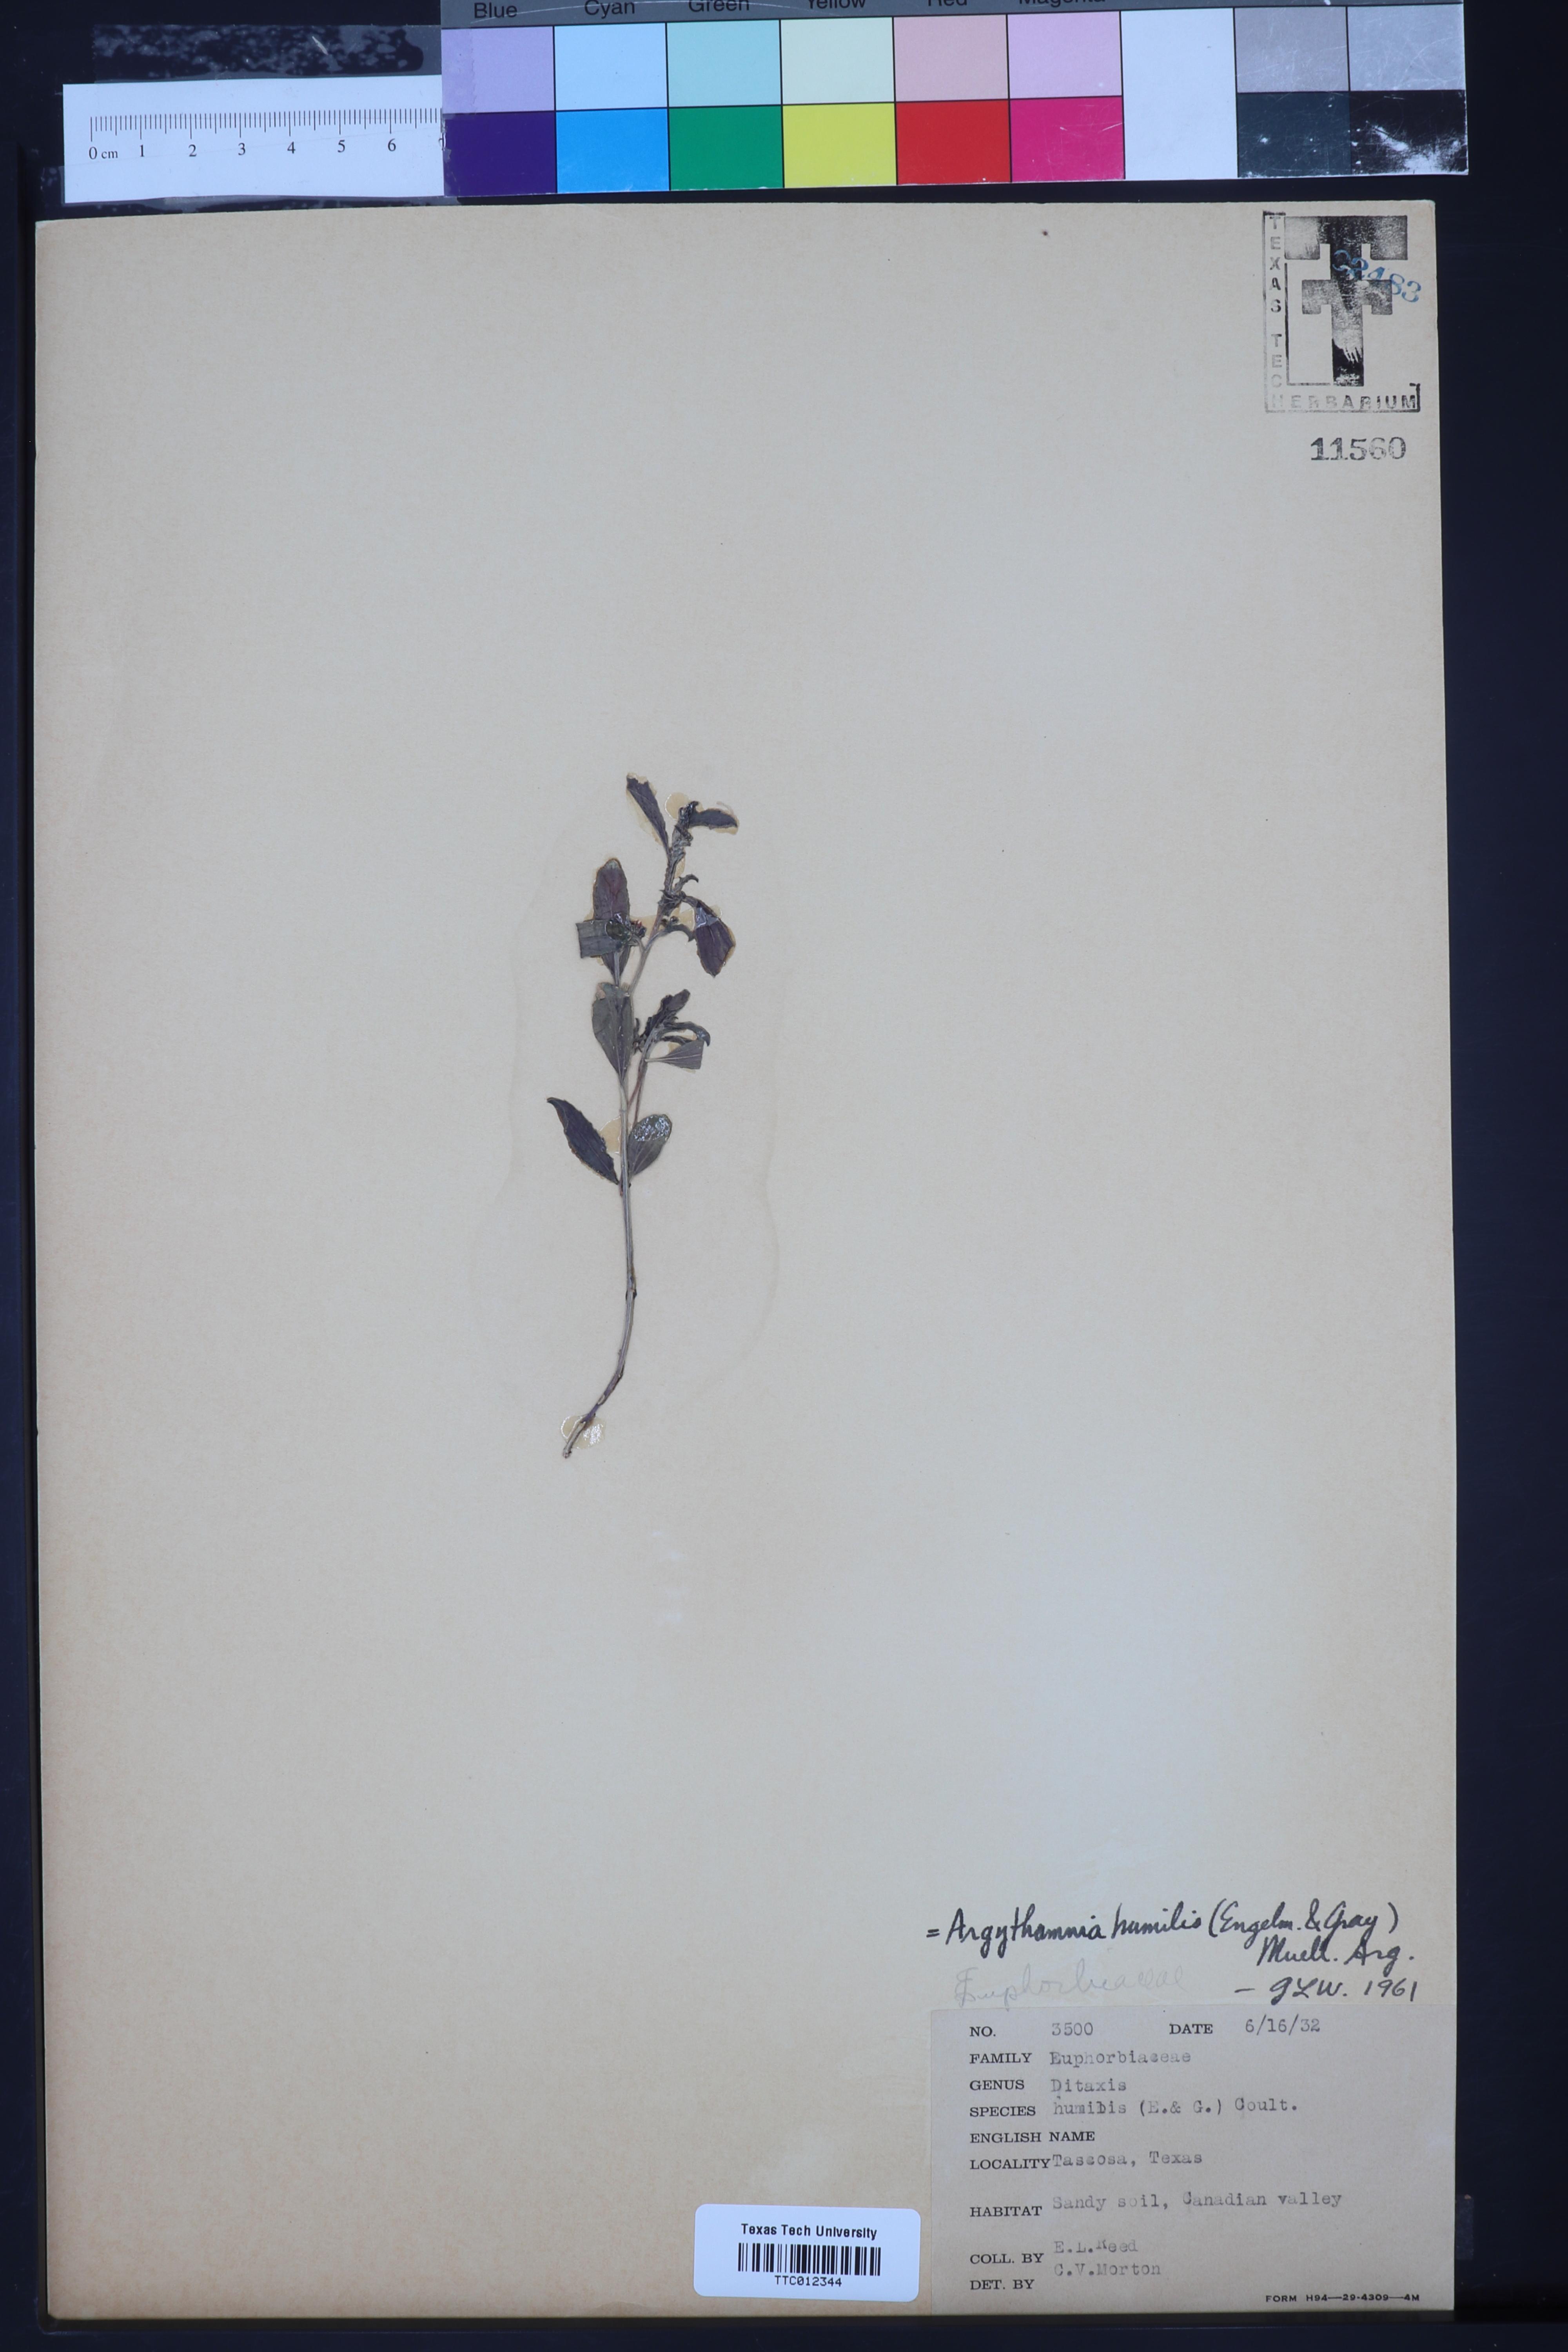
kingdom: Plantae
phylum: Tracheophyta
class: Magnoliopsida
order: Malpighiales
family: Euphorbiaceae
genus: Ditaxis
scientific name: Ditaxis humilis
